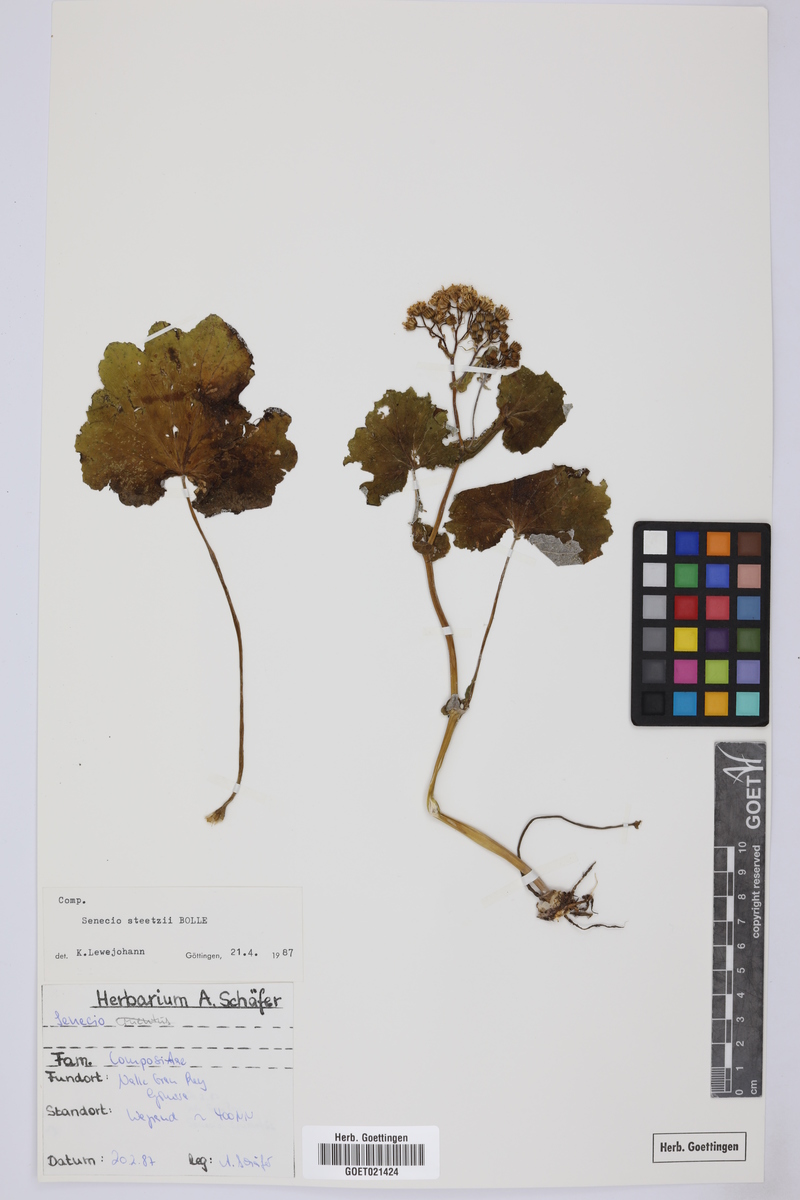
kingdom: Plantae
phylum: Tracheophyta
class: Magnoliopsida
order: Asterales
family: Asteraceae
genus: Pericallis
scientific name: Pericallis steetzii
